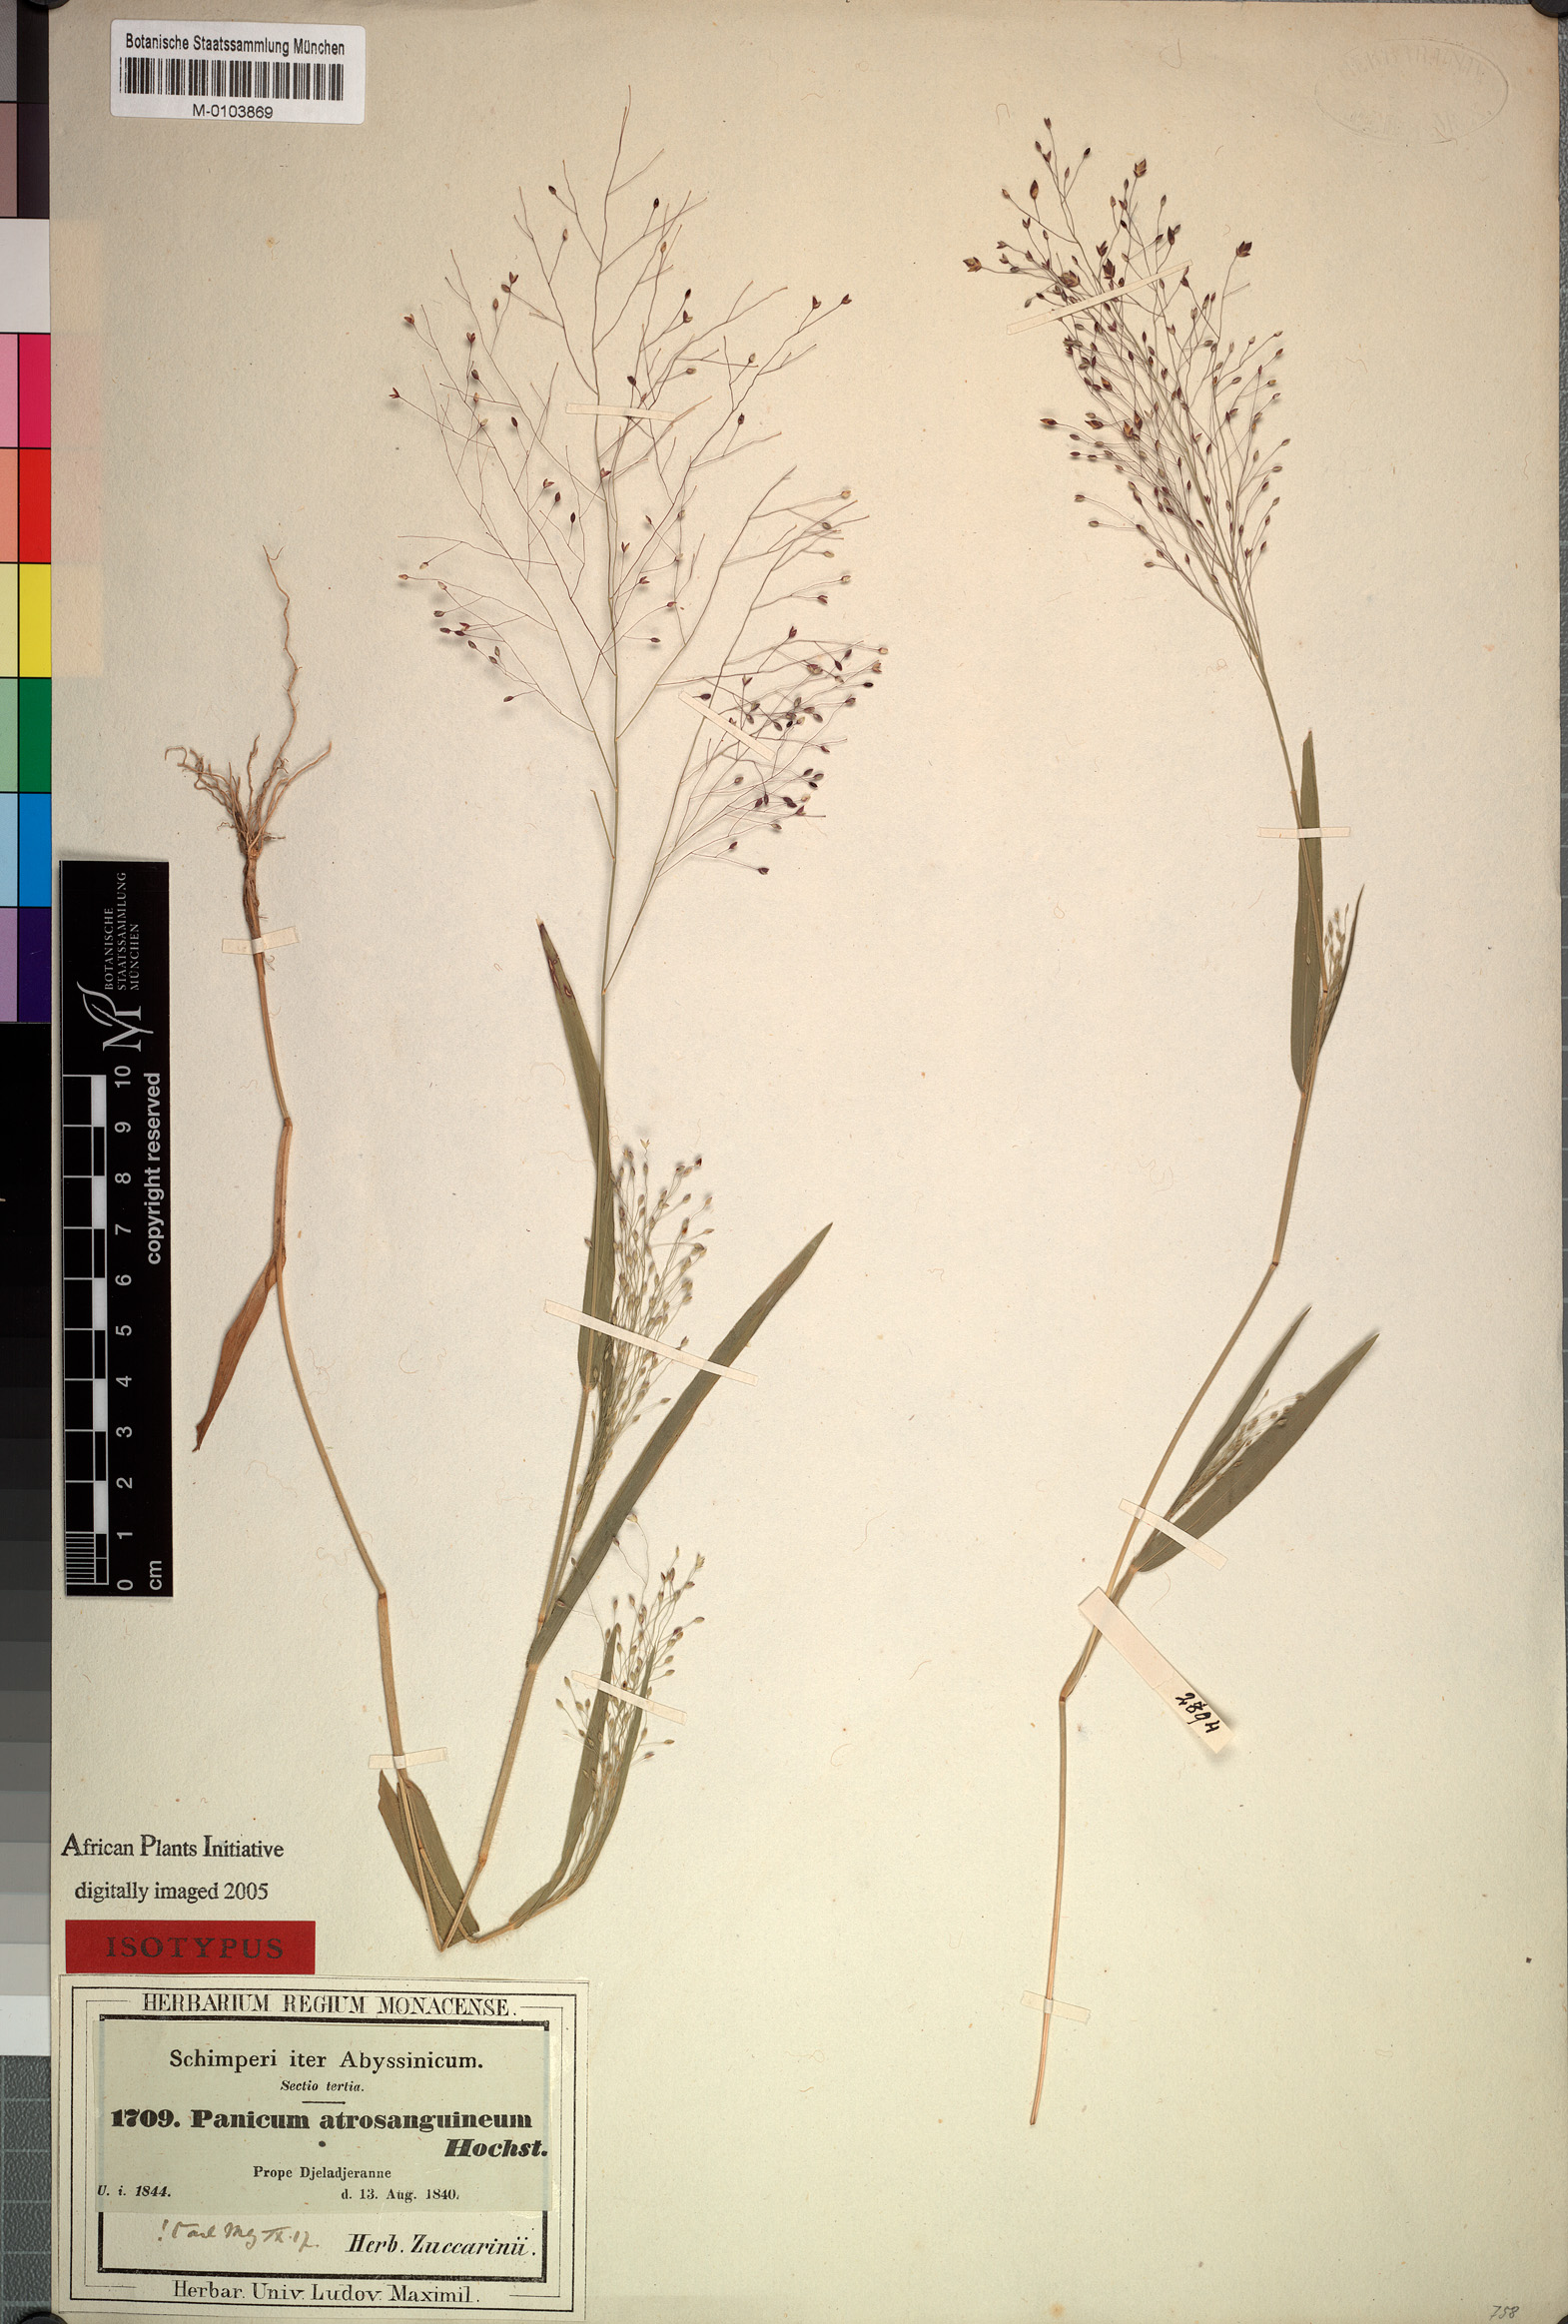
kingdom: Plantae
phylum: Tracheophyta
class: Liliopsida
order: Poales
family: Poaceae
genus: Panicum
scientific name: Panicum atrosanguineum
